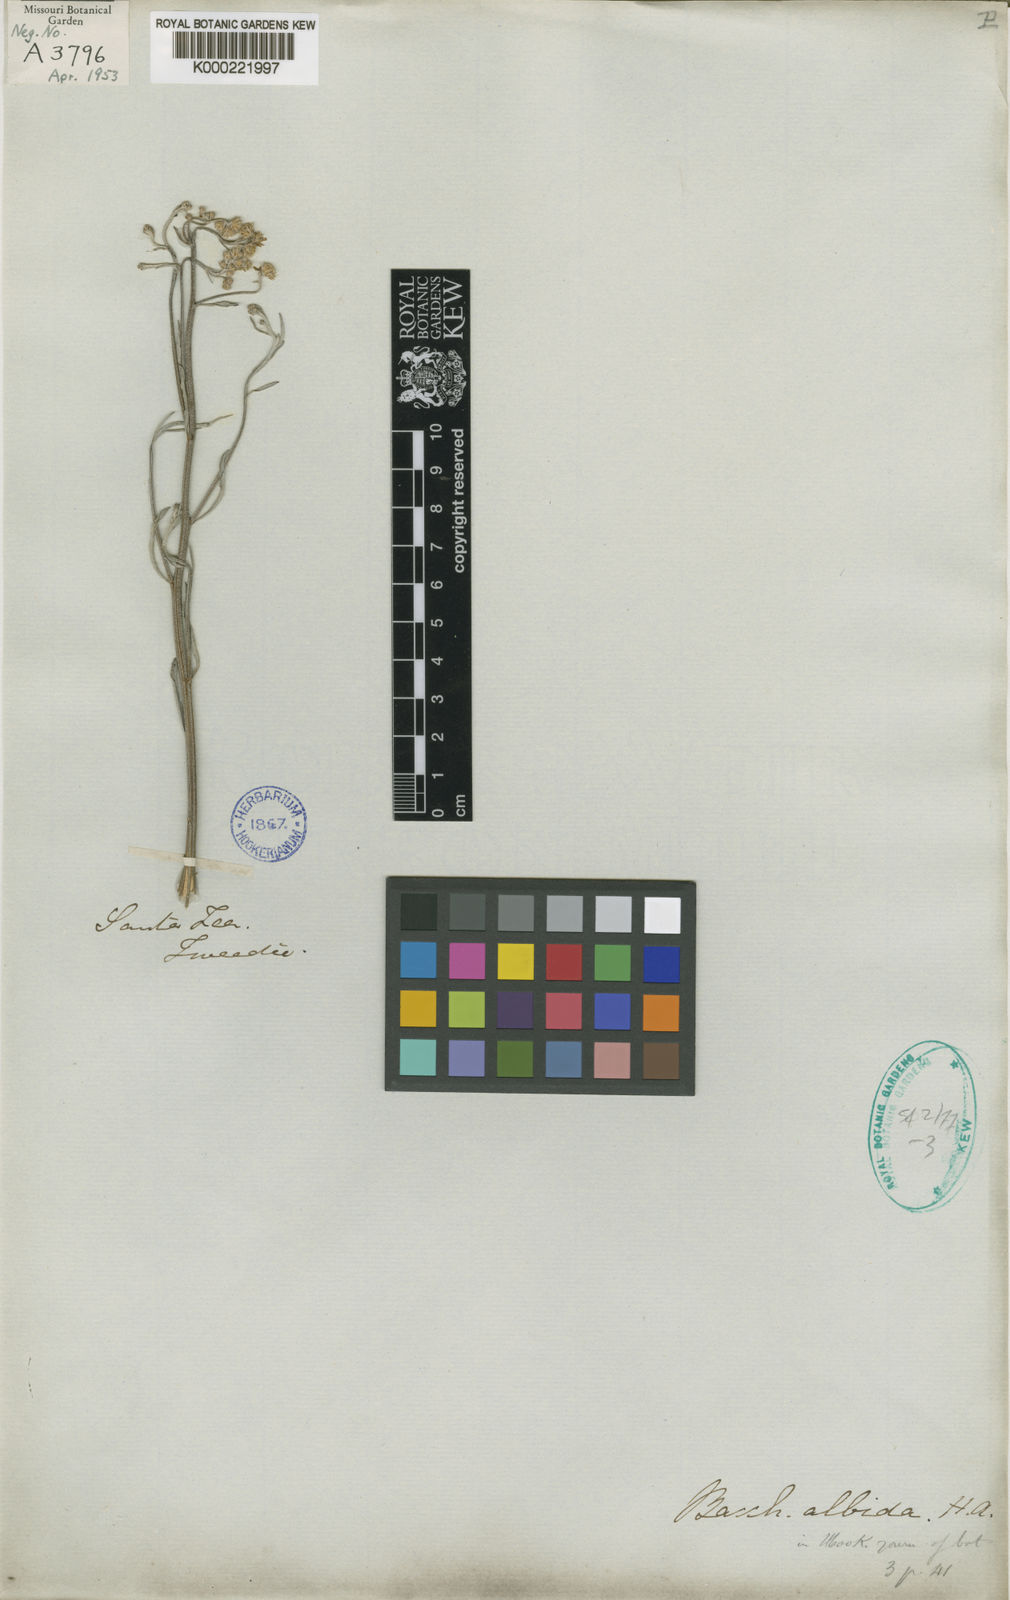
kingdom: Plantae
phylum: Tracheophyta
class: Magnoliopsida
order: Asterales
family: Asteraceae
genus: Baccharis
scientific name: Baccharis albida
